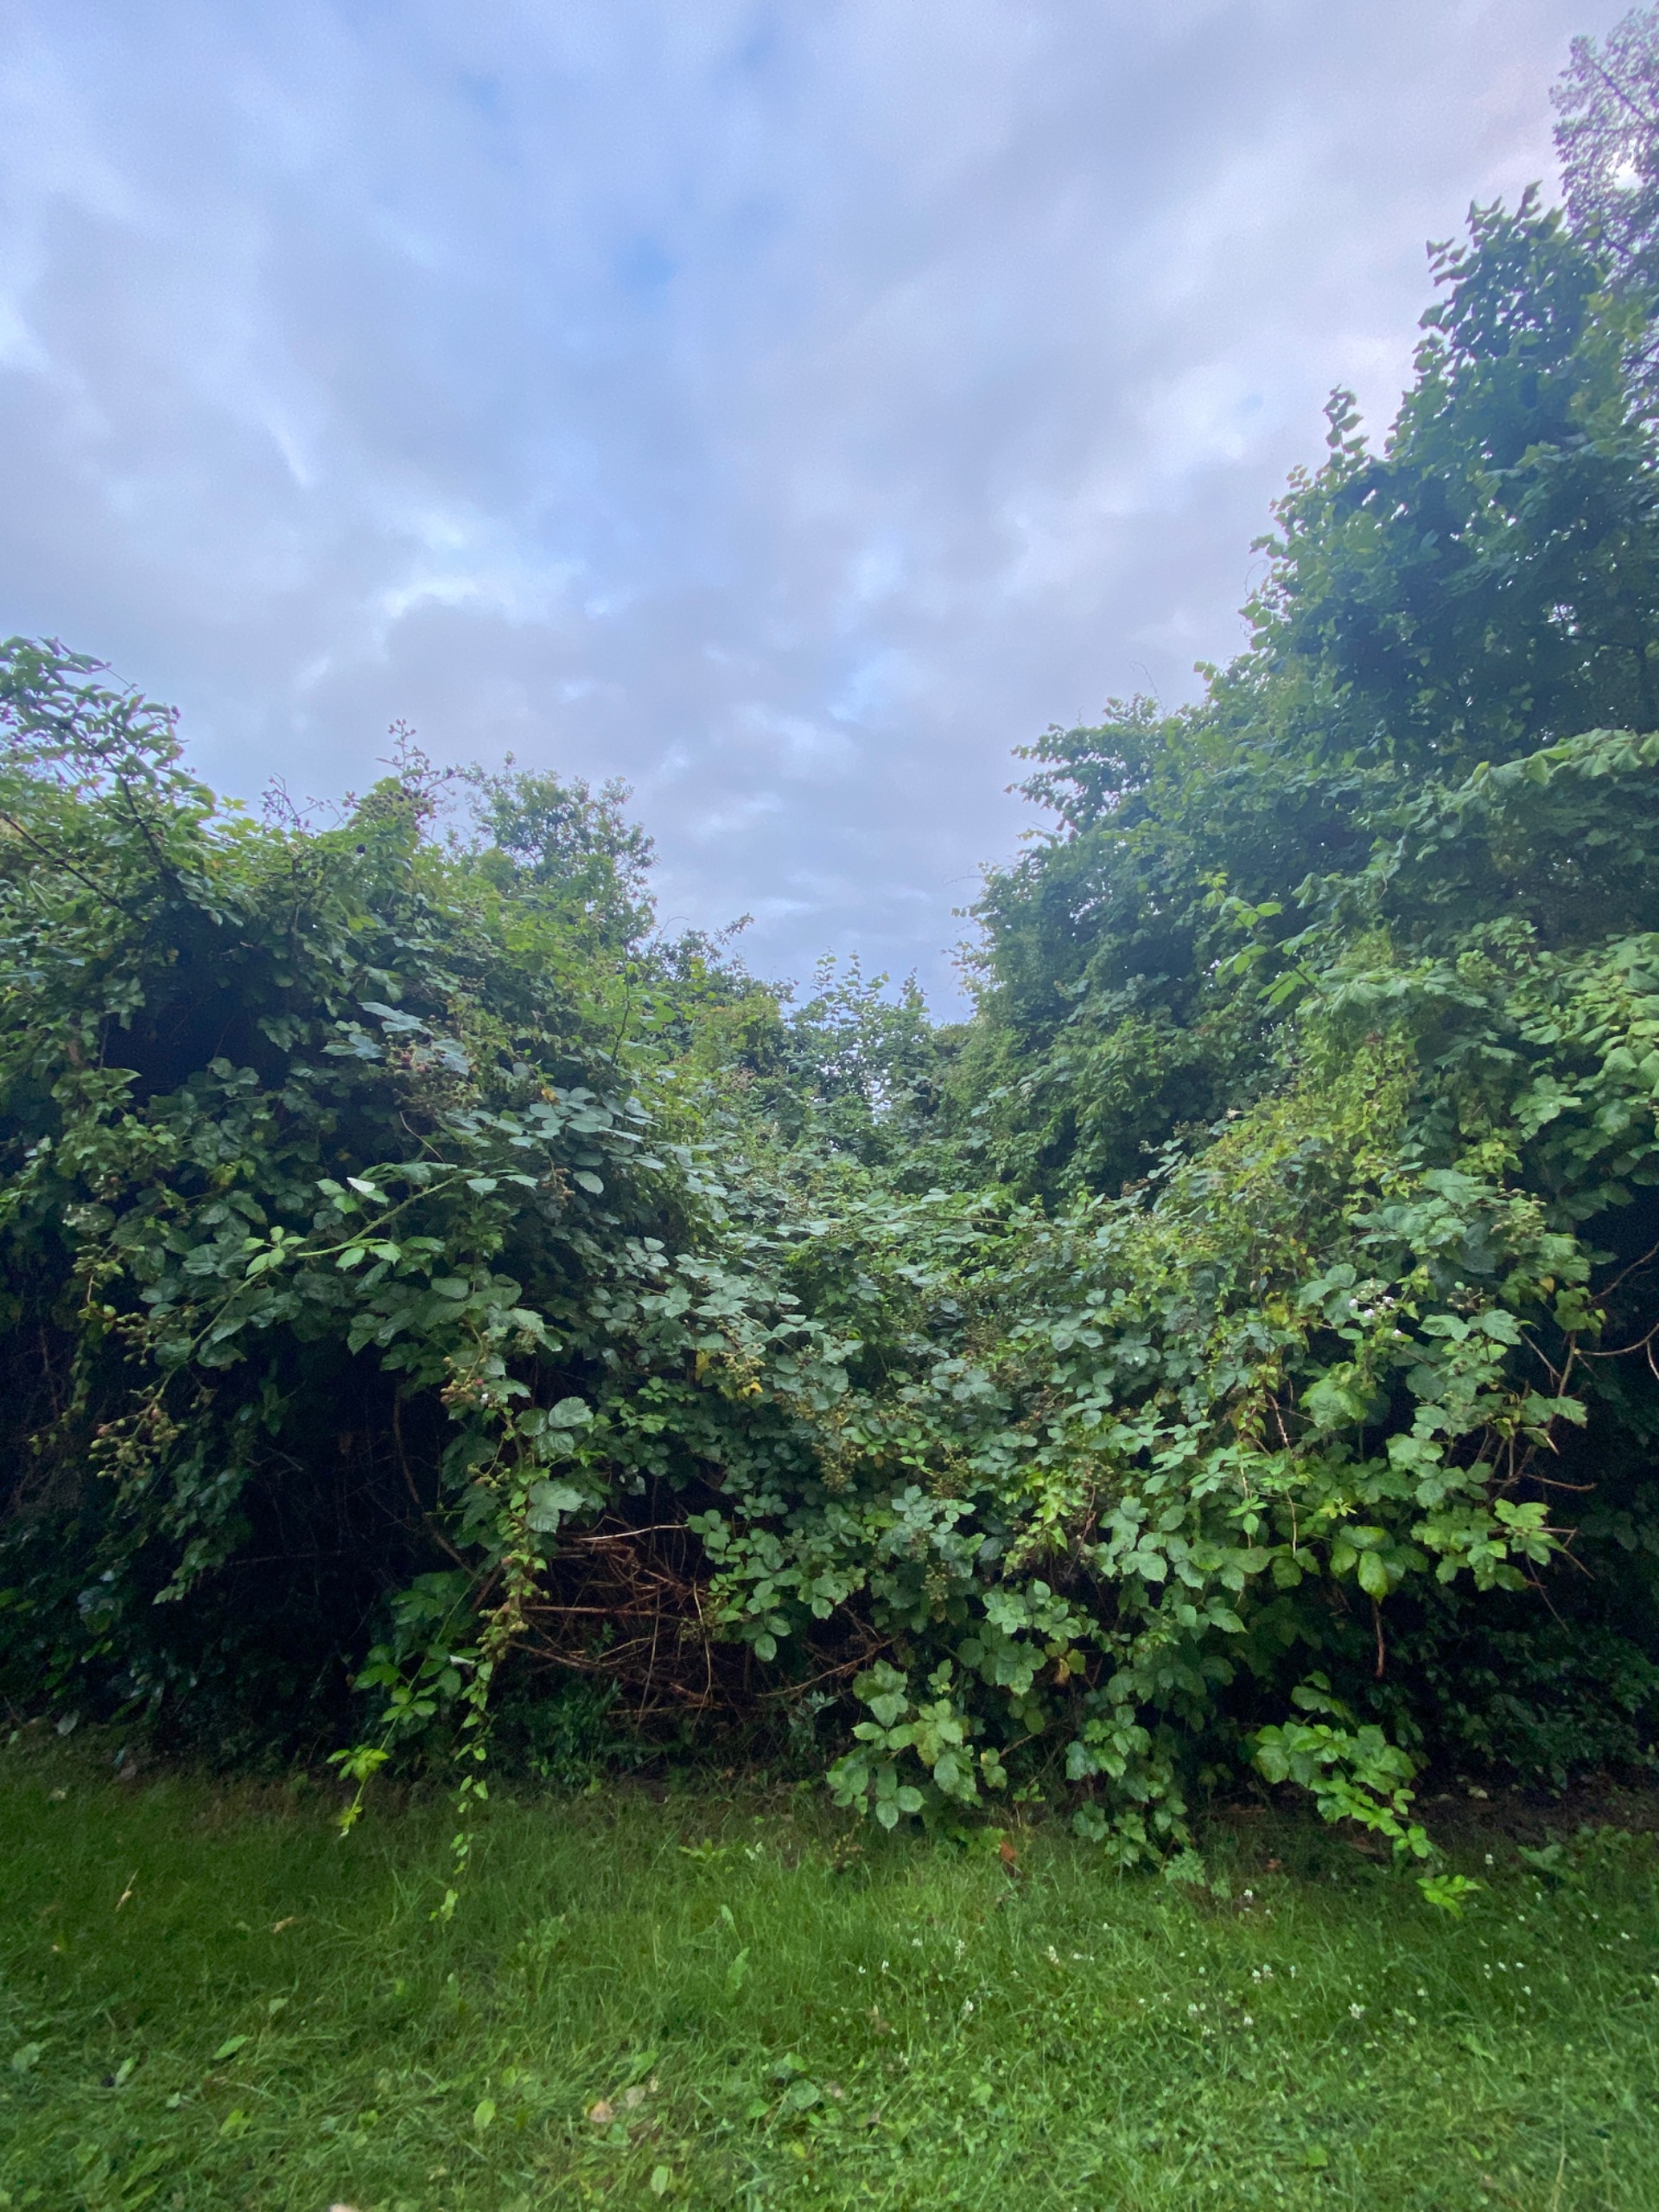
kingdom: Plantae
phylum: Tracheophyta
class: Magnoliopsida
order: Rosales
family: Rosaceae
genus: Rubus
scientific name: Rubus
